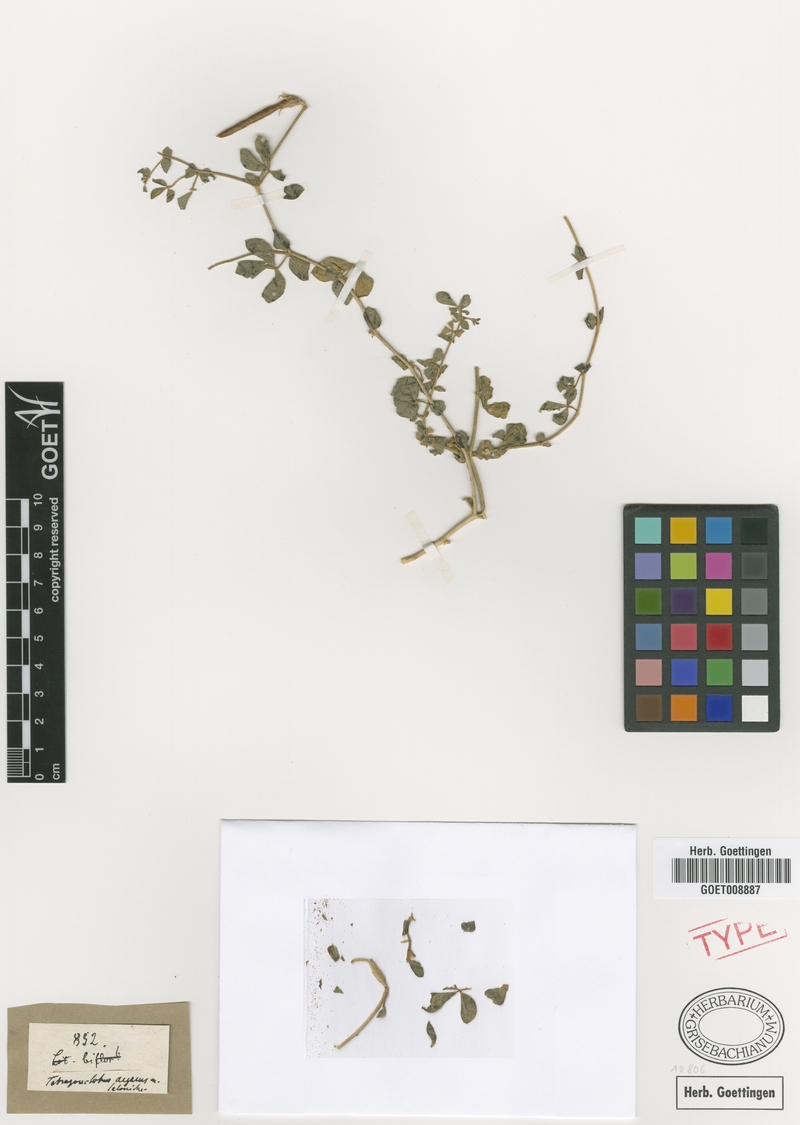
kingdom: Plantae
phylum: Tracheophyta
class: Magnoliopsida
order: Fabales
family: Fabaceae
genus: Lotus
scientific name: Lotus aegaeus
